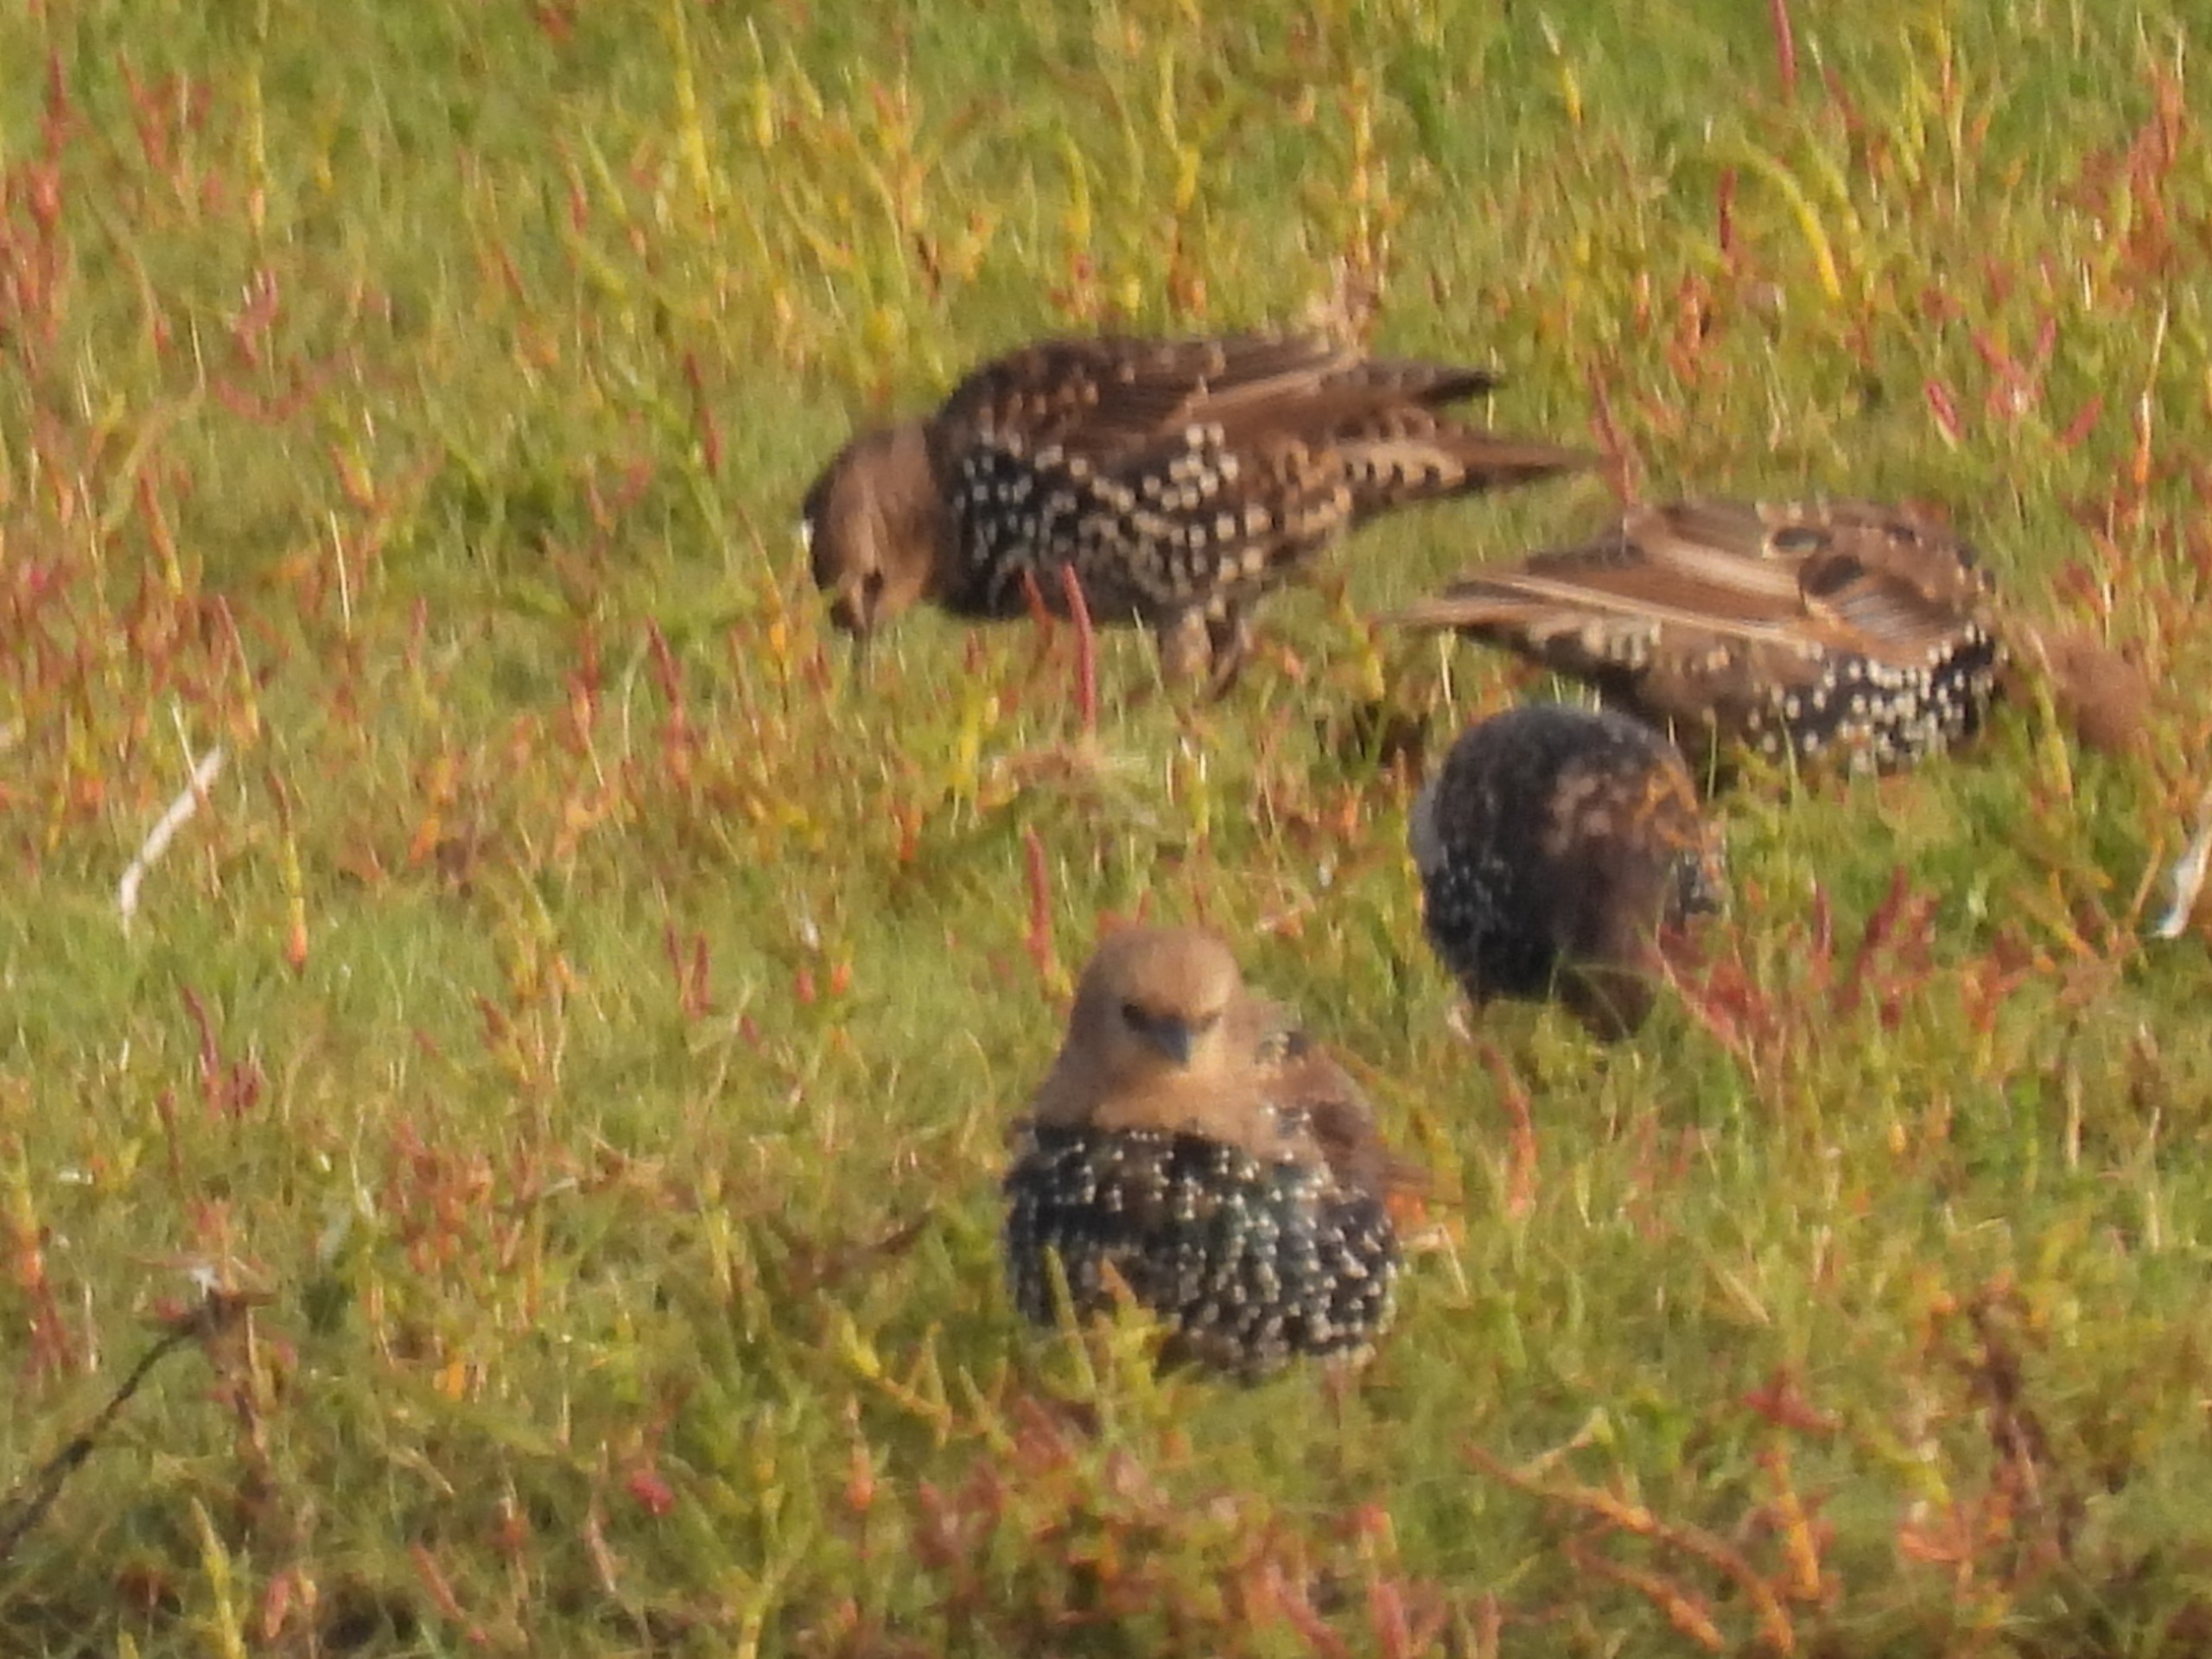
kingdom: Animalia
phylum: Chordata
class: Aves
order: Passeriformes
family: Sturnidae
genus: Sturnus
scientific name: Sturnus vulgaris
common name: Stær
